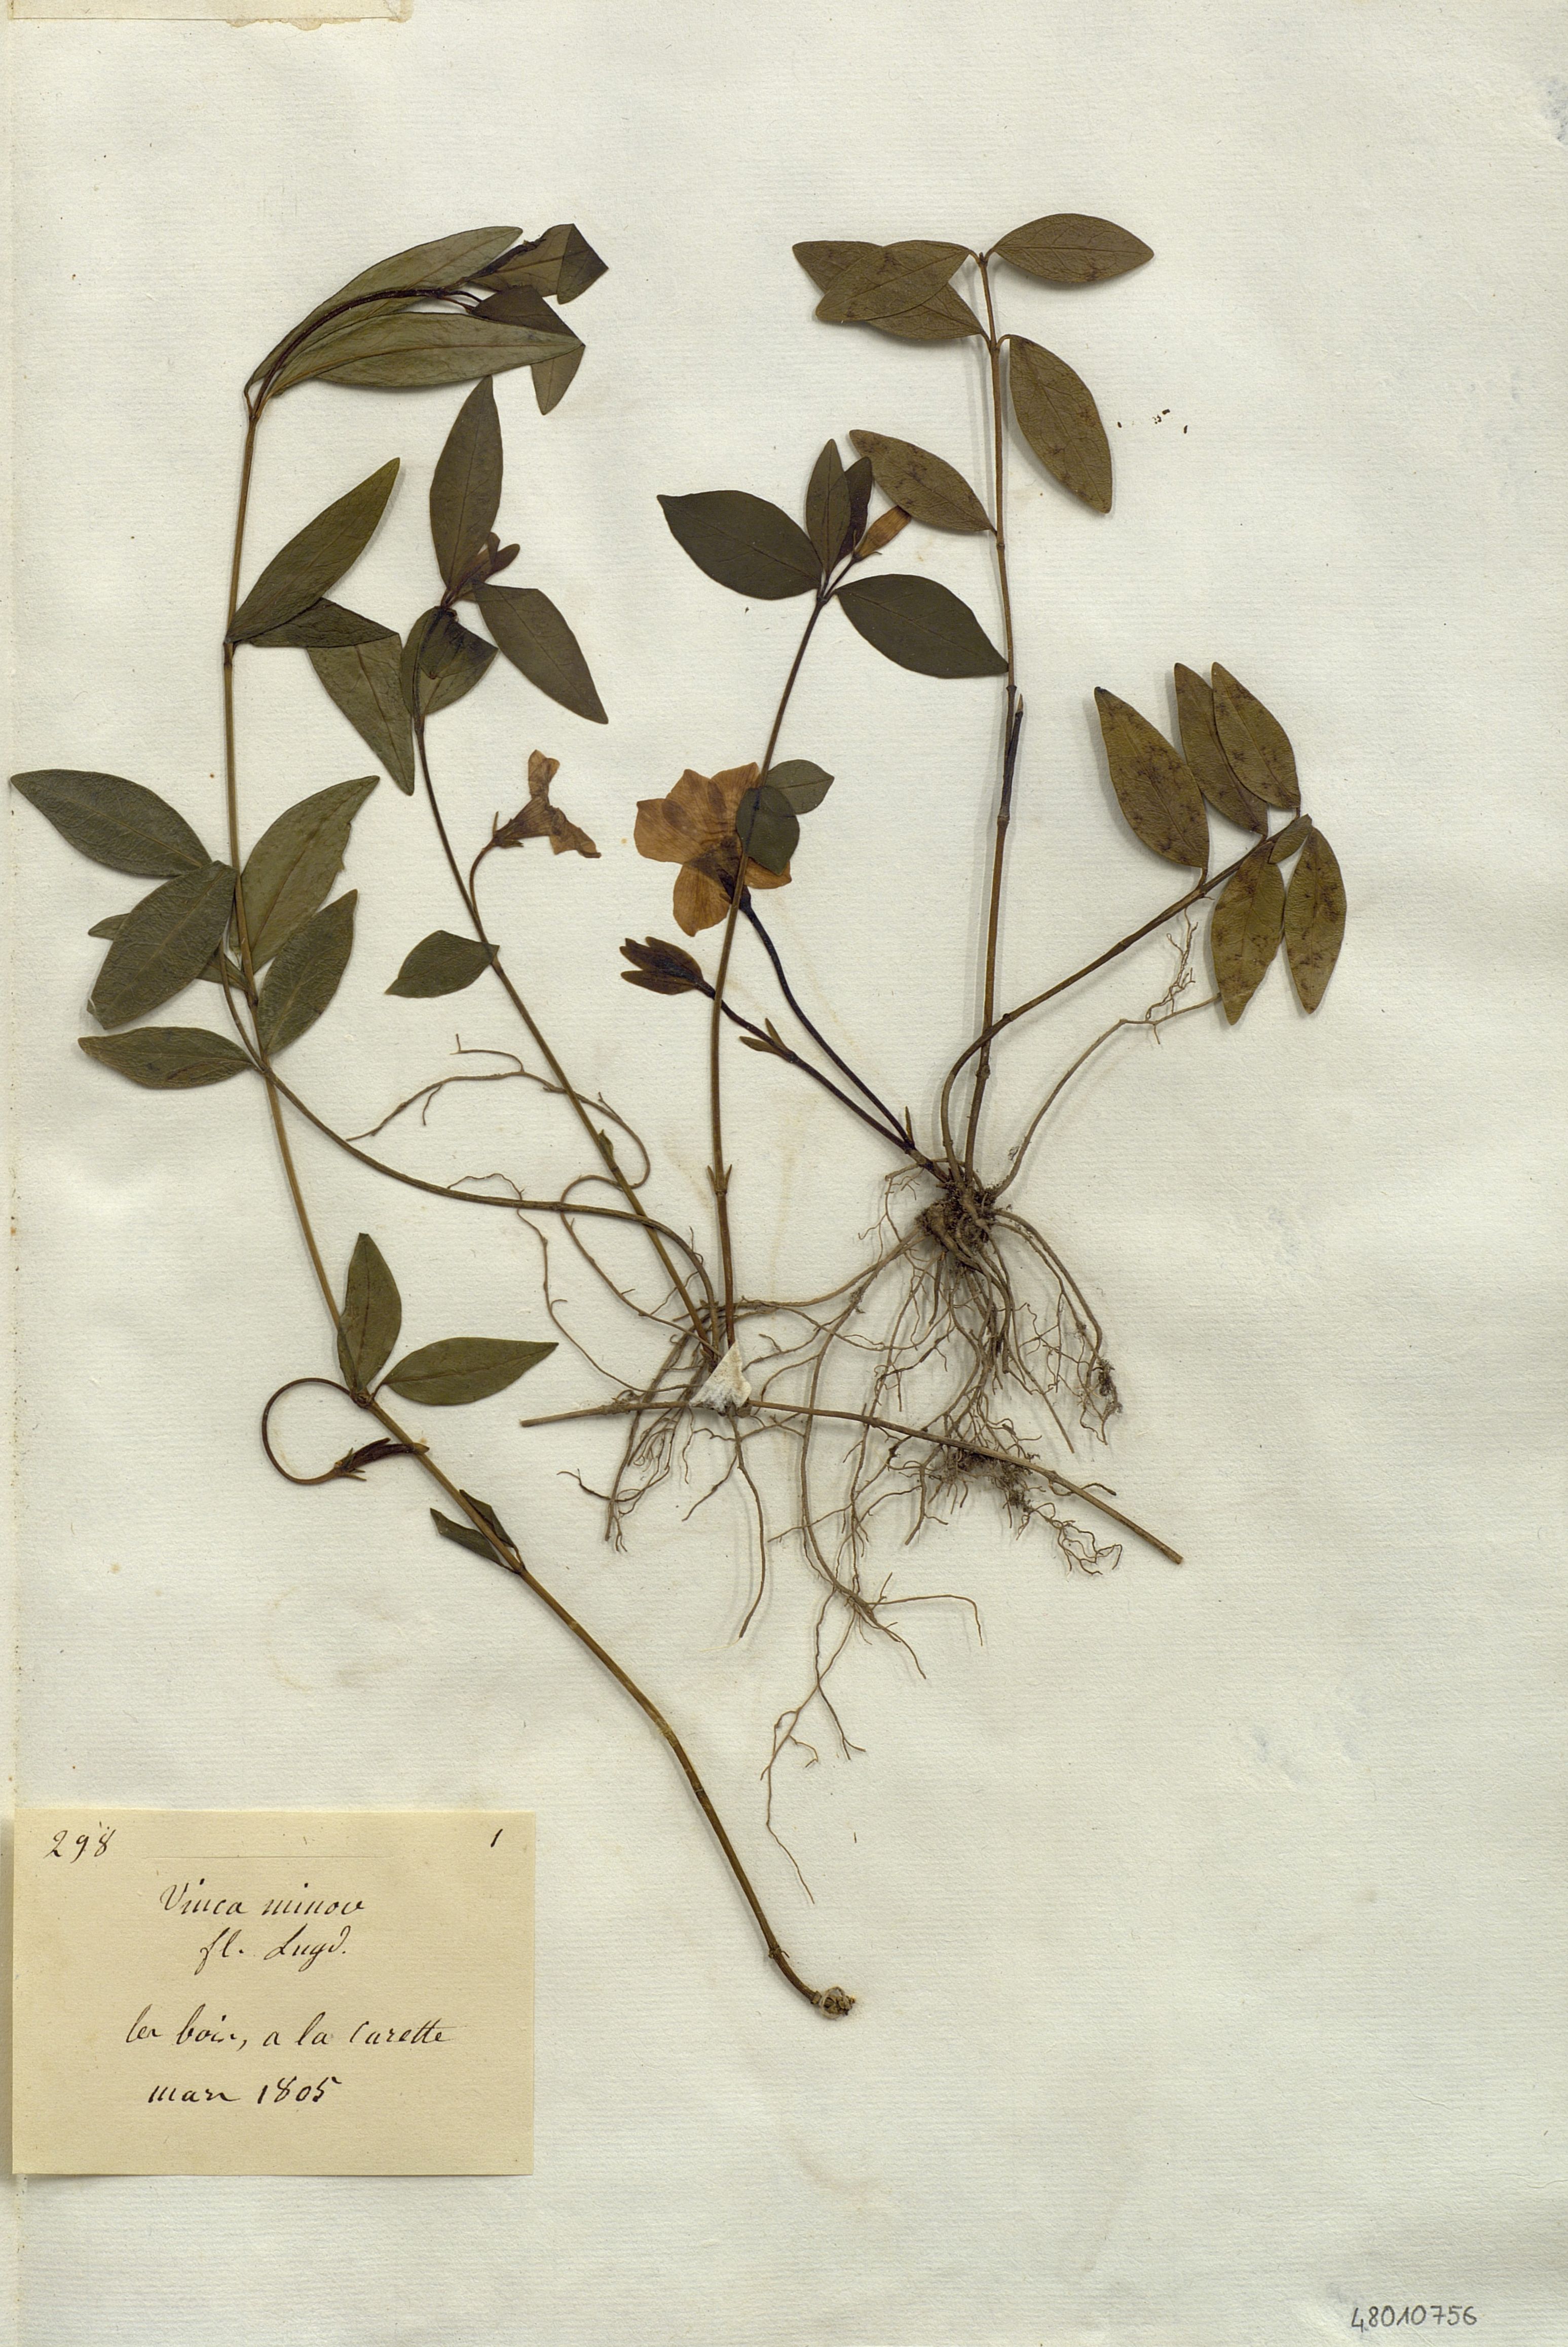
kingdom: Plantae
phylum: Tracheophyta
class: Magnoliopsida
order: Gentianales
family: Apocynaceae
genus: Vinca
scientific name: Vinca minor
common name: Lesser periwinkle
